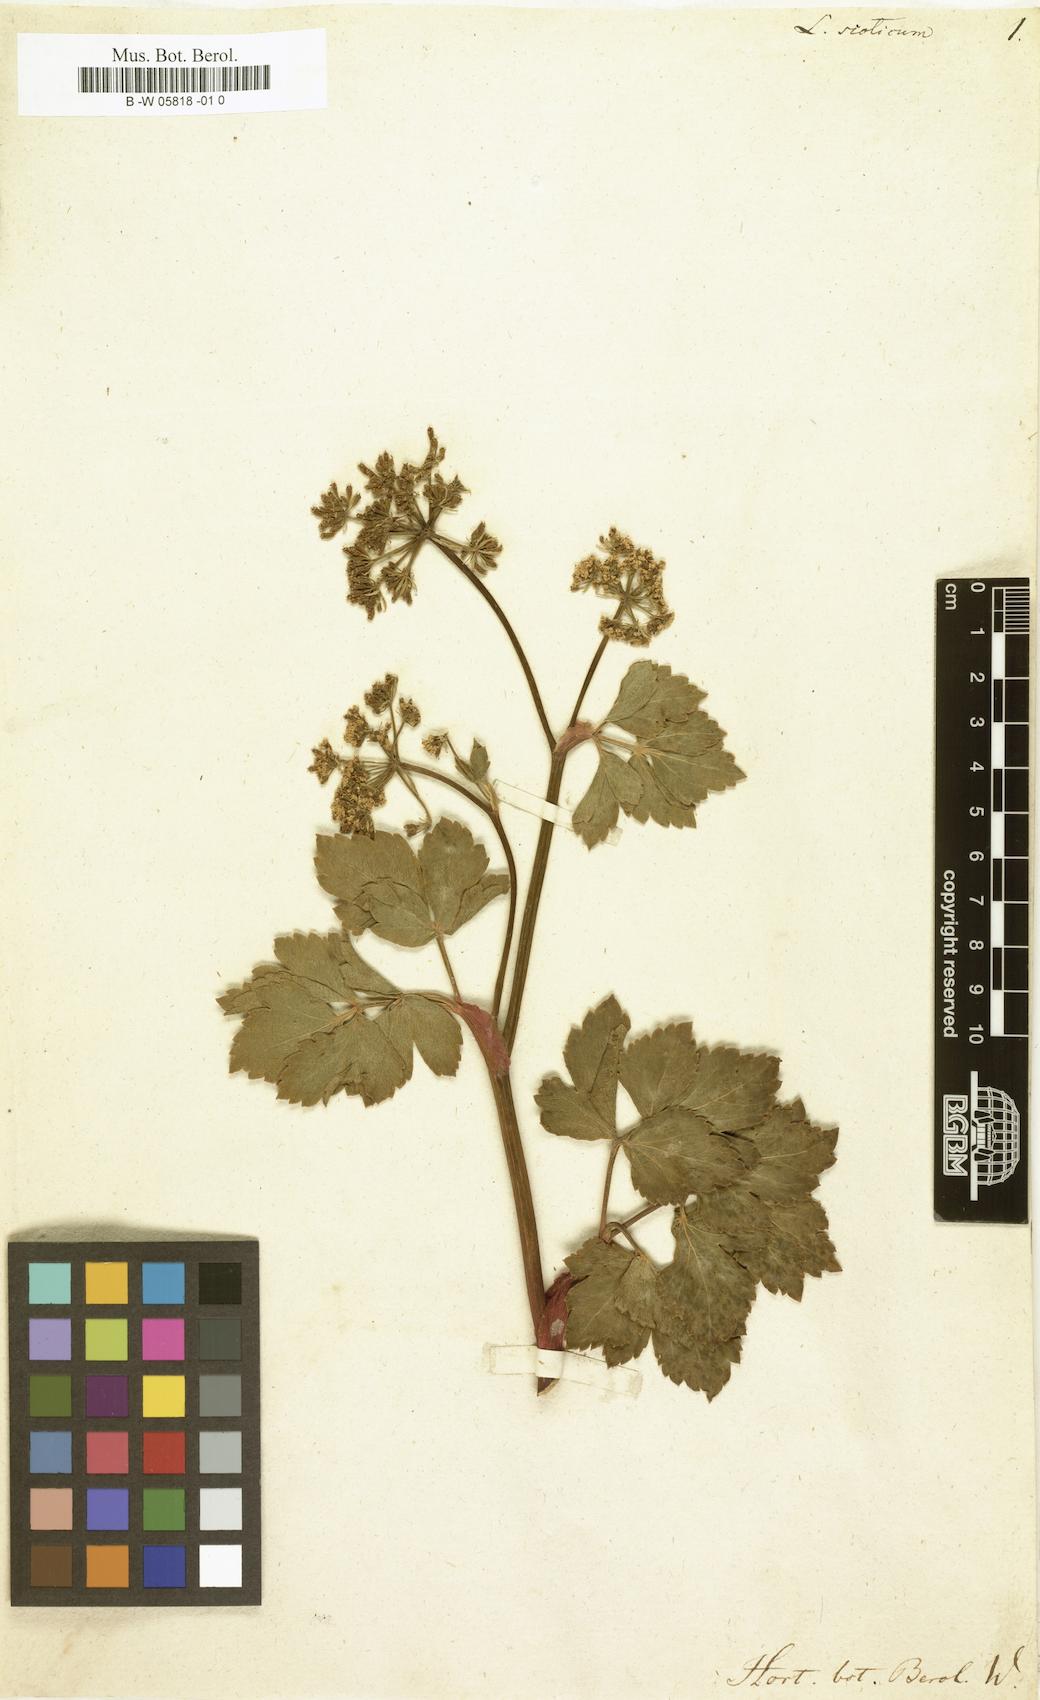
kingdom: Plantae
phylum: Tracheophyta
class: Magnoliopsida
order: Apiales
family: Apiaceae
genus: Ligusticum
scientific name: Ligusticum scoticum
